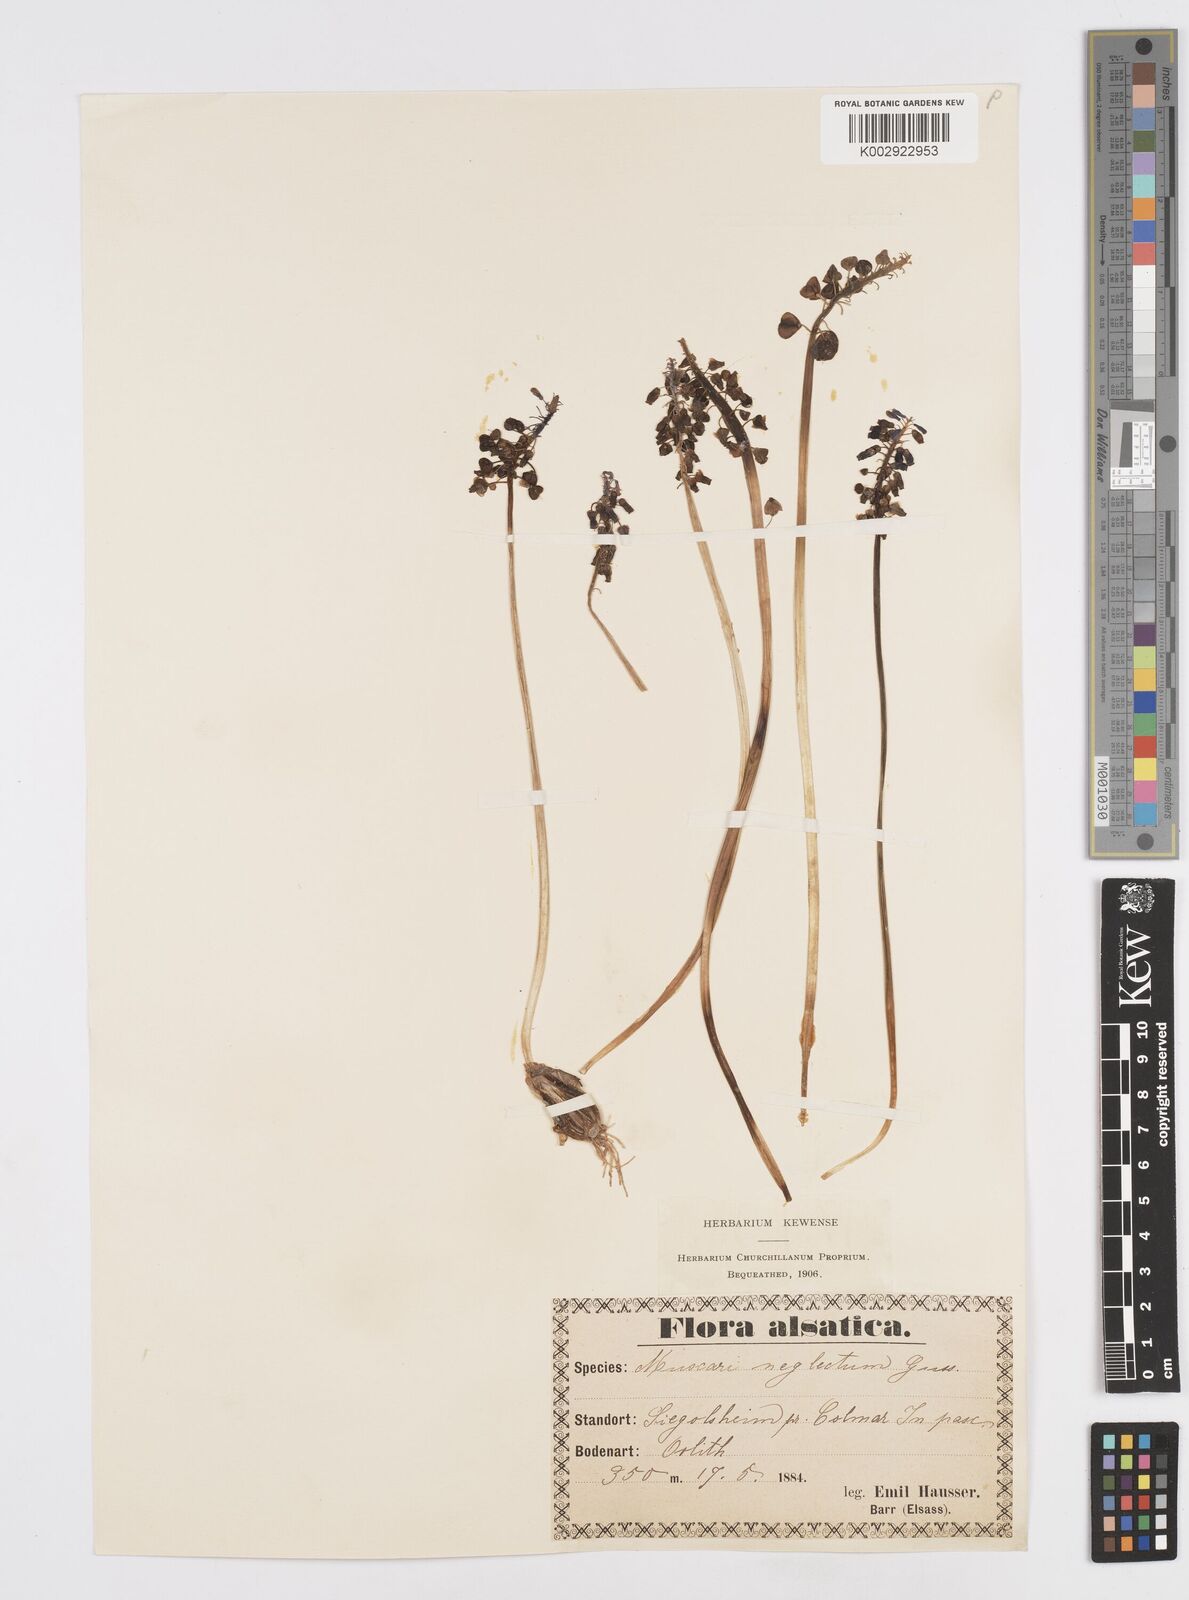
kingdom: Plantae
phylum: Tracheophyta
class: Liliopsida
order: Asparagales
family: Asparagaceae
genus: Muscari
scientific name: Muscari neglectum
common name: Grape-hyacinth
